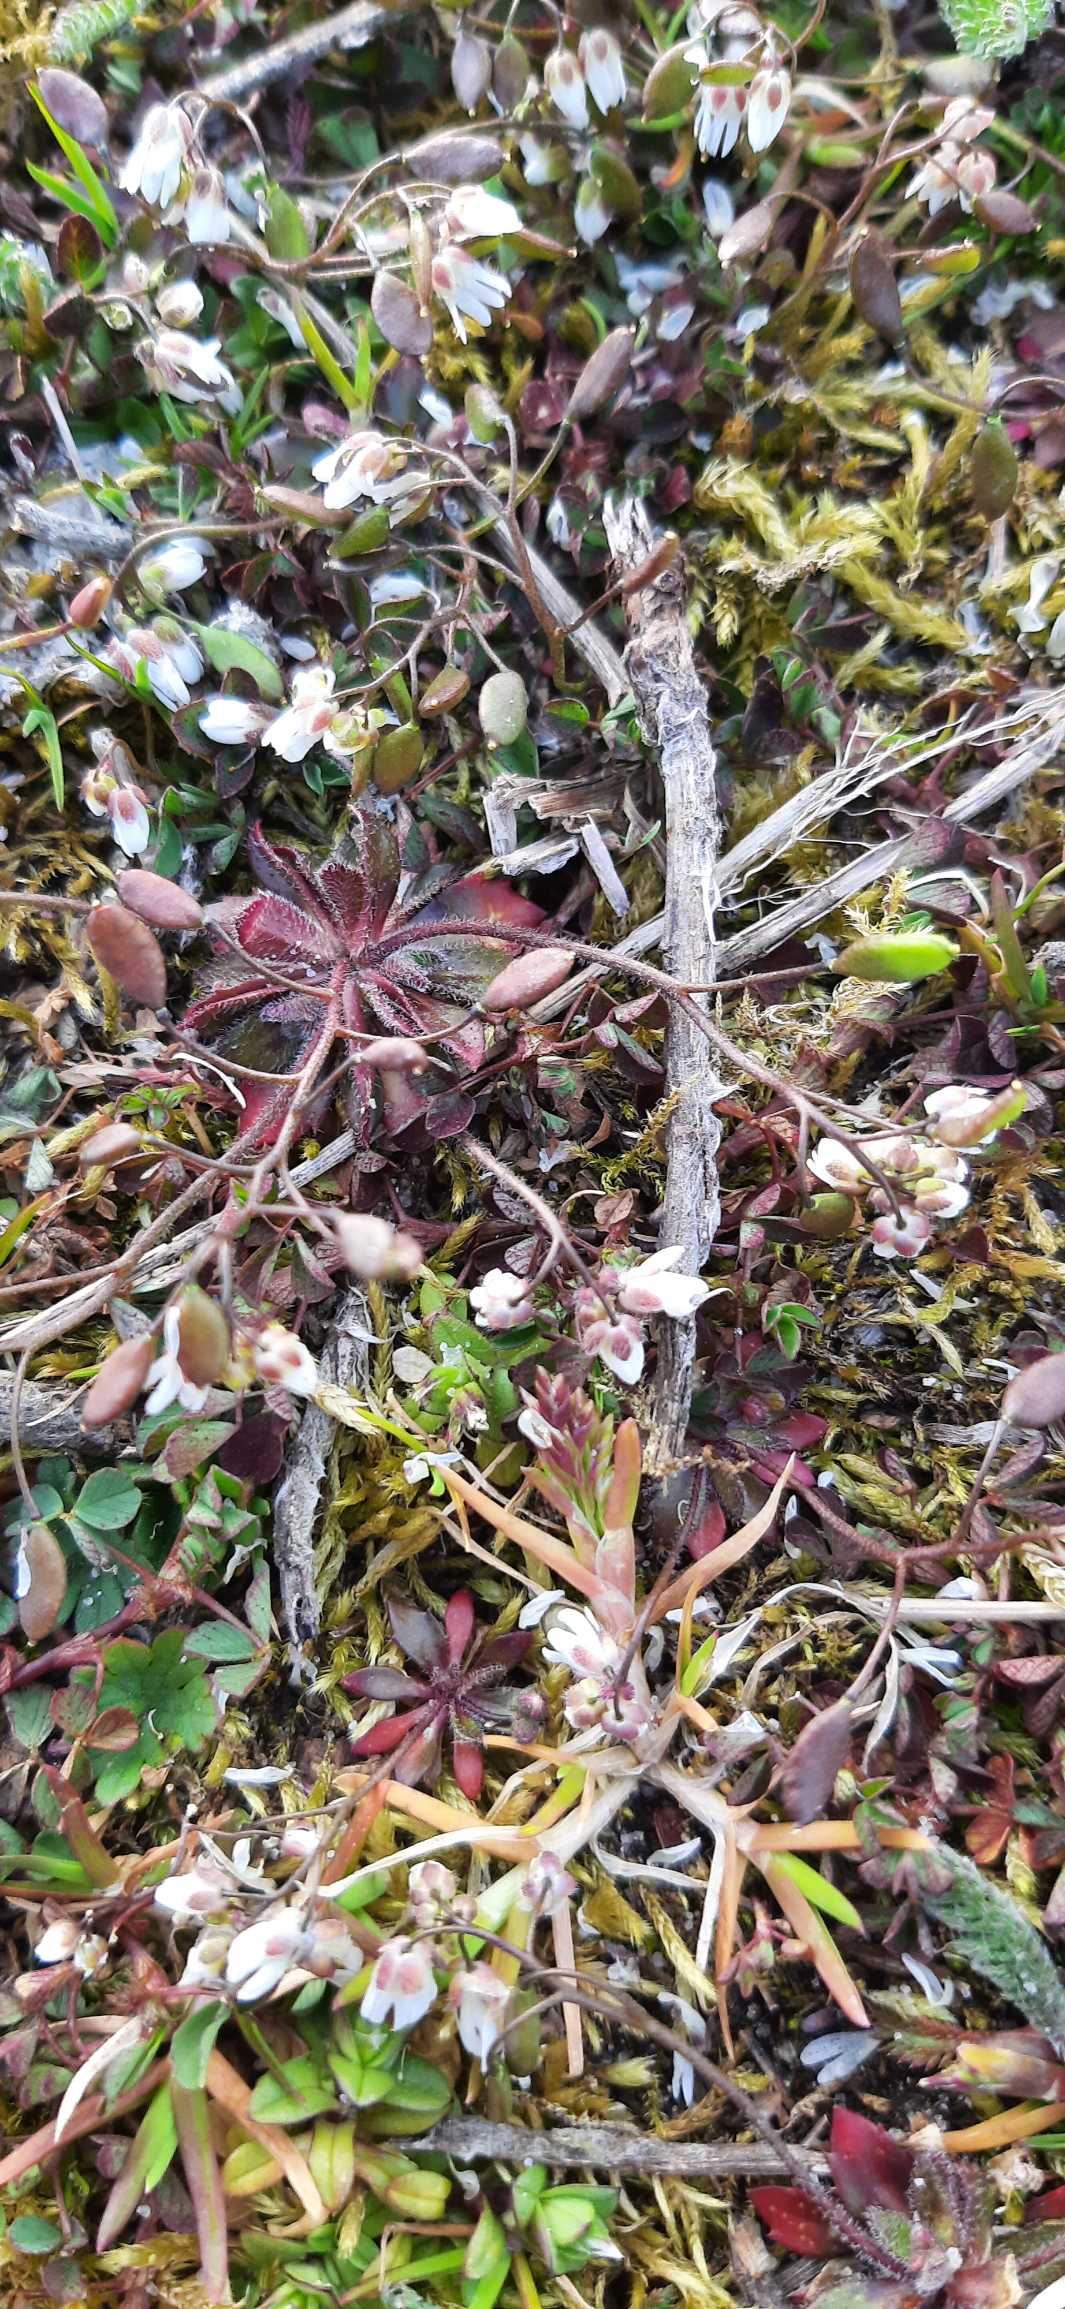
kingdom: Plantae
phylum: Tracheophyta
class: Magnoliopsida
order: Brassicales
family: Brassicaceae
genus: Draba
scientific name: Draba verna
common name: Vår-gæslingeblomst
